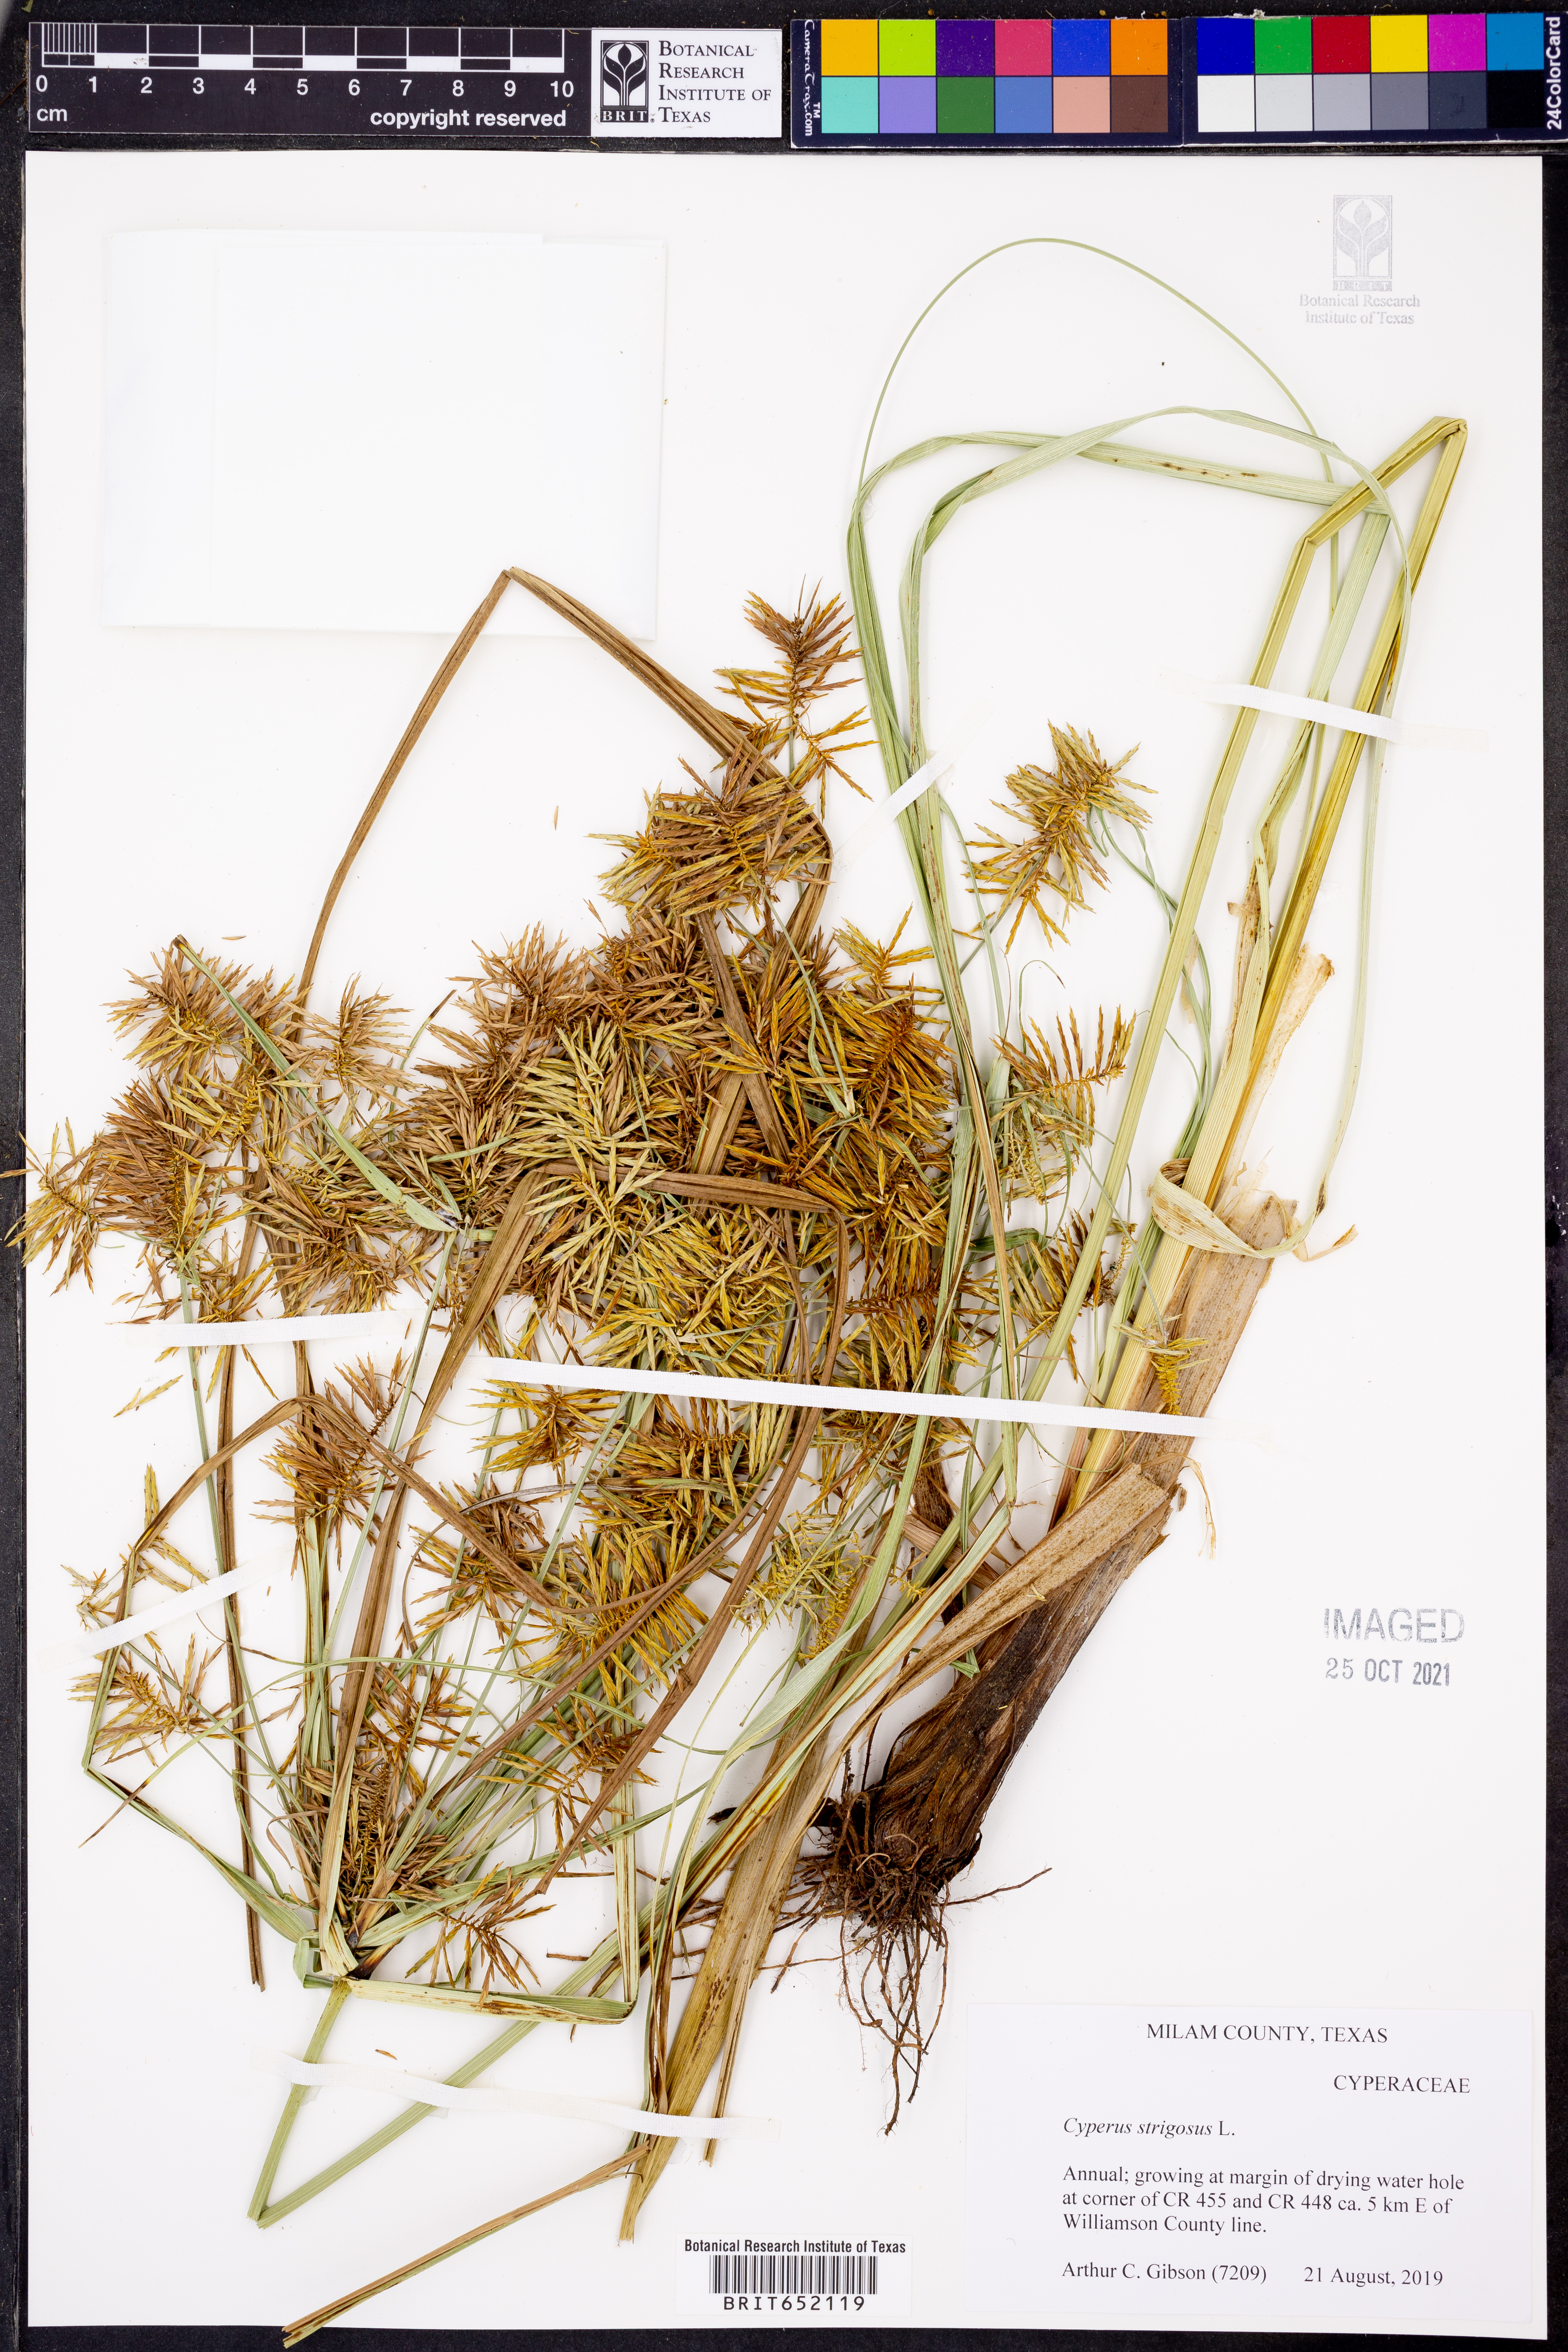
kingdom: Plantae
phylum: Tracheophyta
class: Liliopsida
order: Poales
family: Cyperaceae
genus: Cyperus
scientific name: Cyperus strigosus
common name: False nutsedge
